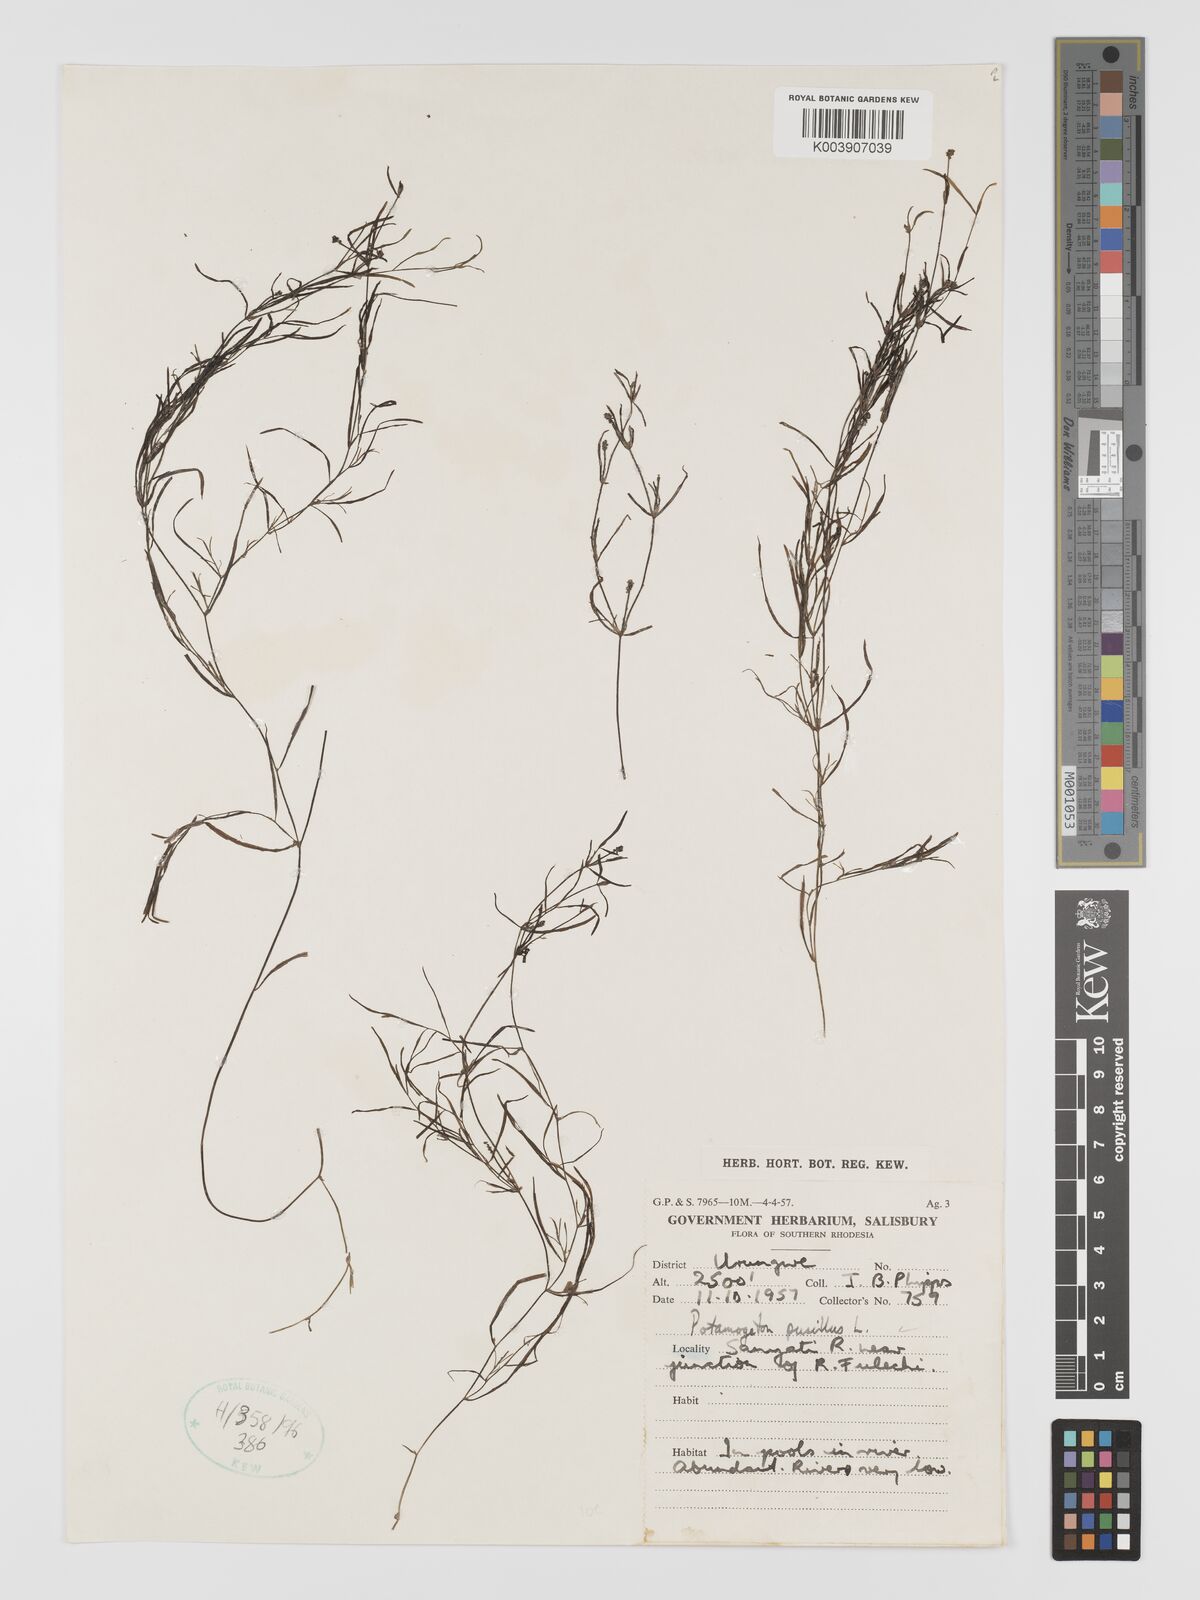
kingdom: Plantae
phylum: Tracheophyta
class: Liliopsida
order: Alismatales
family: Potamogetonaceae
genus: Potamogeton
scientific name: Potamogeton pusillus
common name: Lesser pondweed
